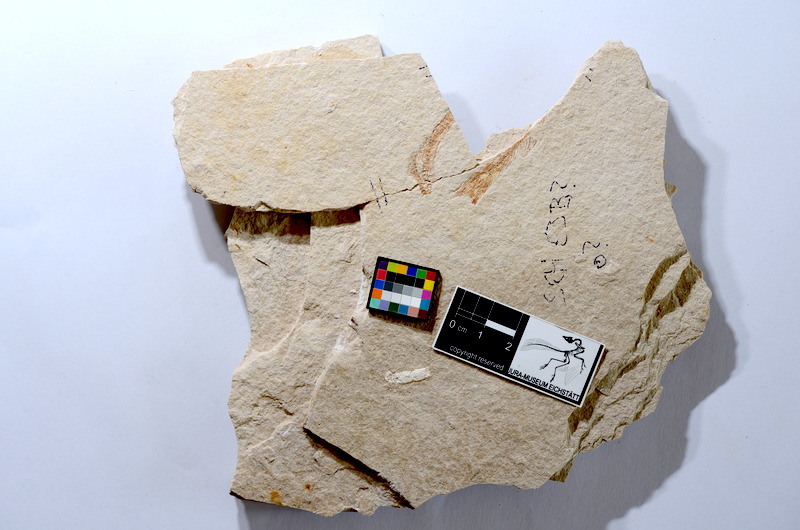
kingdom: Animalia
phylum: Chordata
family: Ascalaboidae
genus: Tharsis
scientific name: Tharsis dubius
